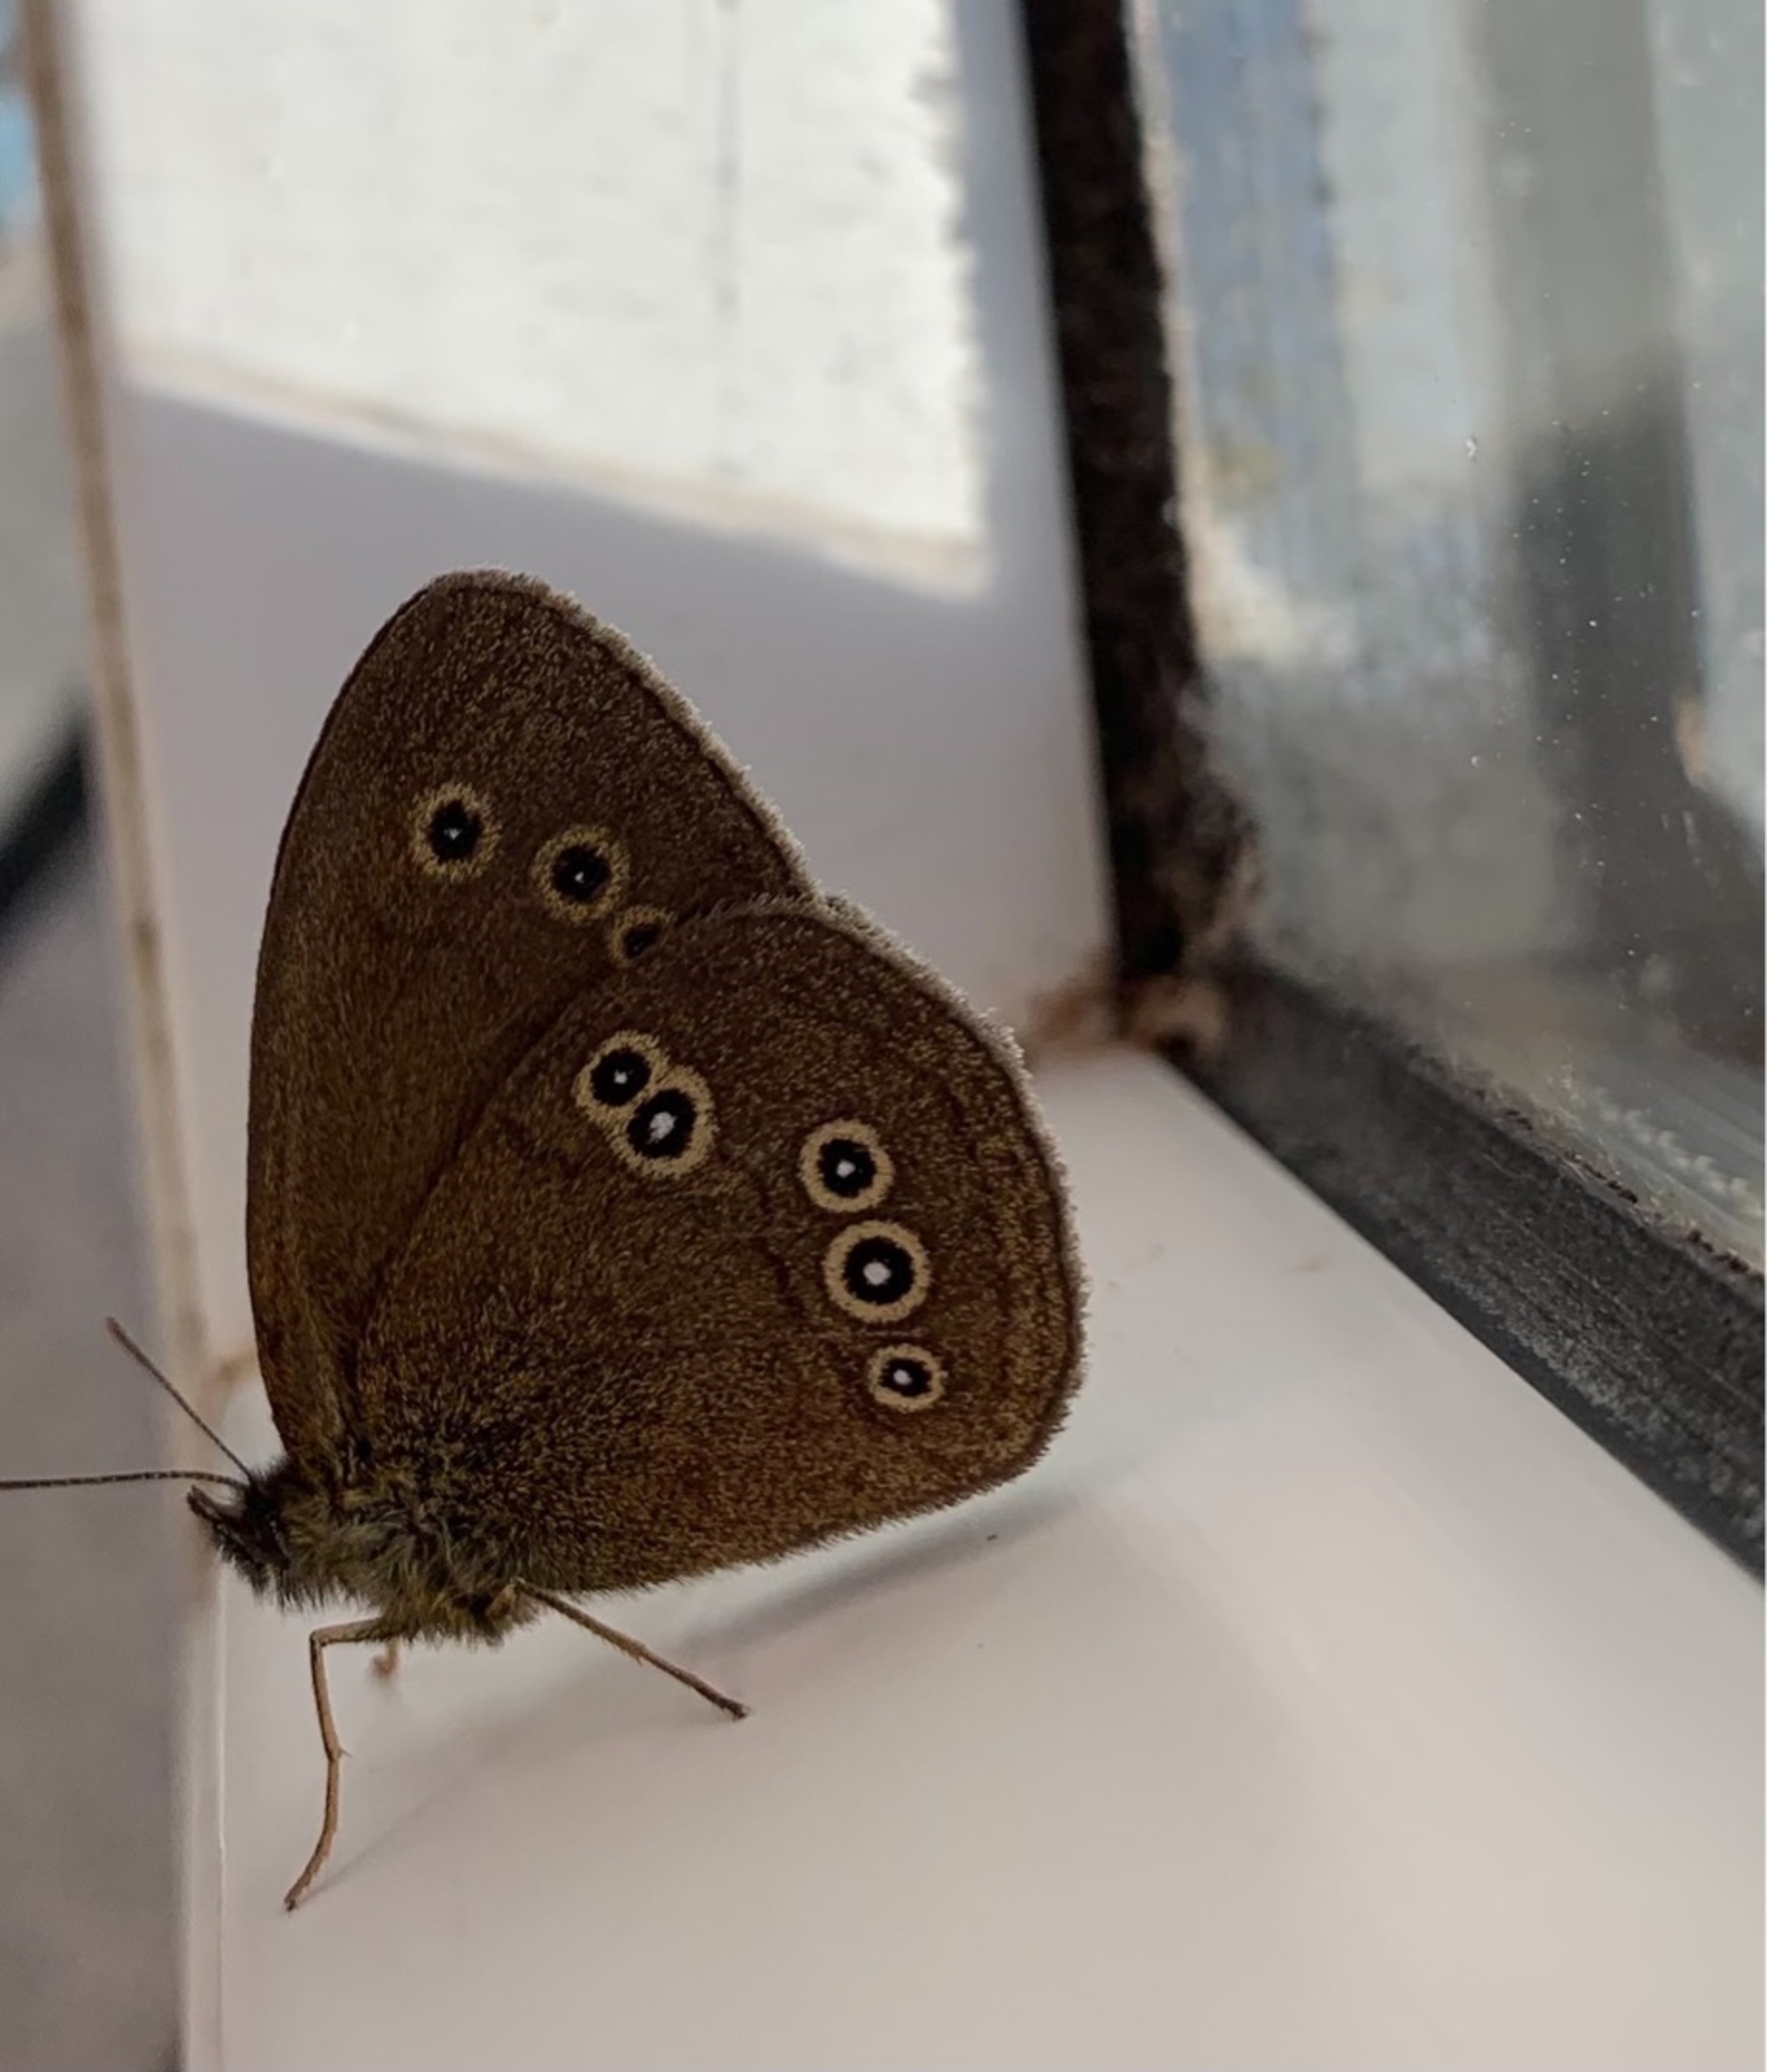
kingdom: Animalia
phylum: Arthropoda
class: Insecta
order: Lepidoptera
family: Nymphalidae
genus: Aphantopus
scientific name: Aphantopus hyperantus
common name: Engrandøje
